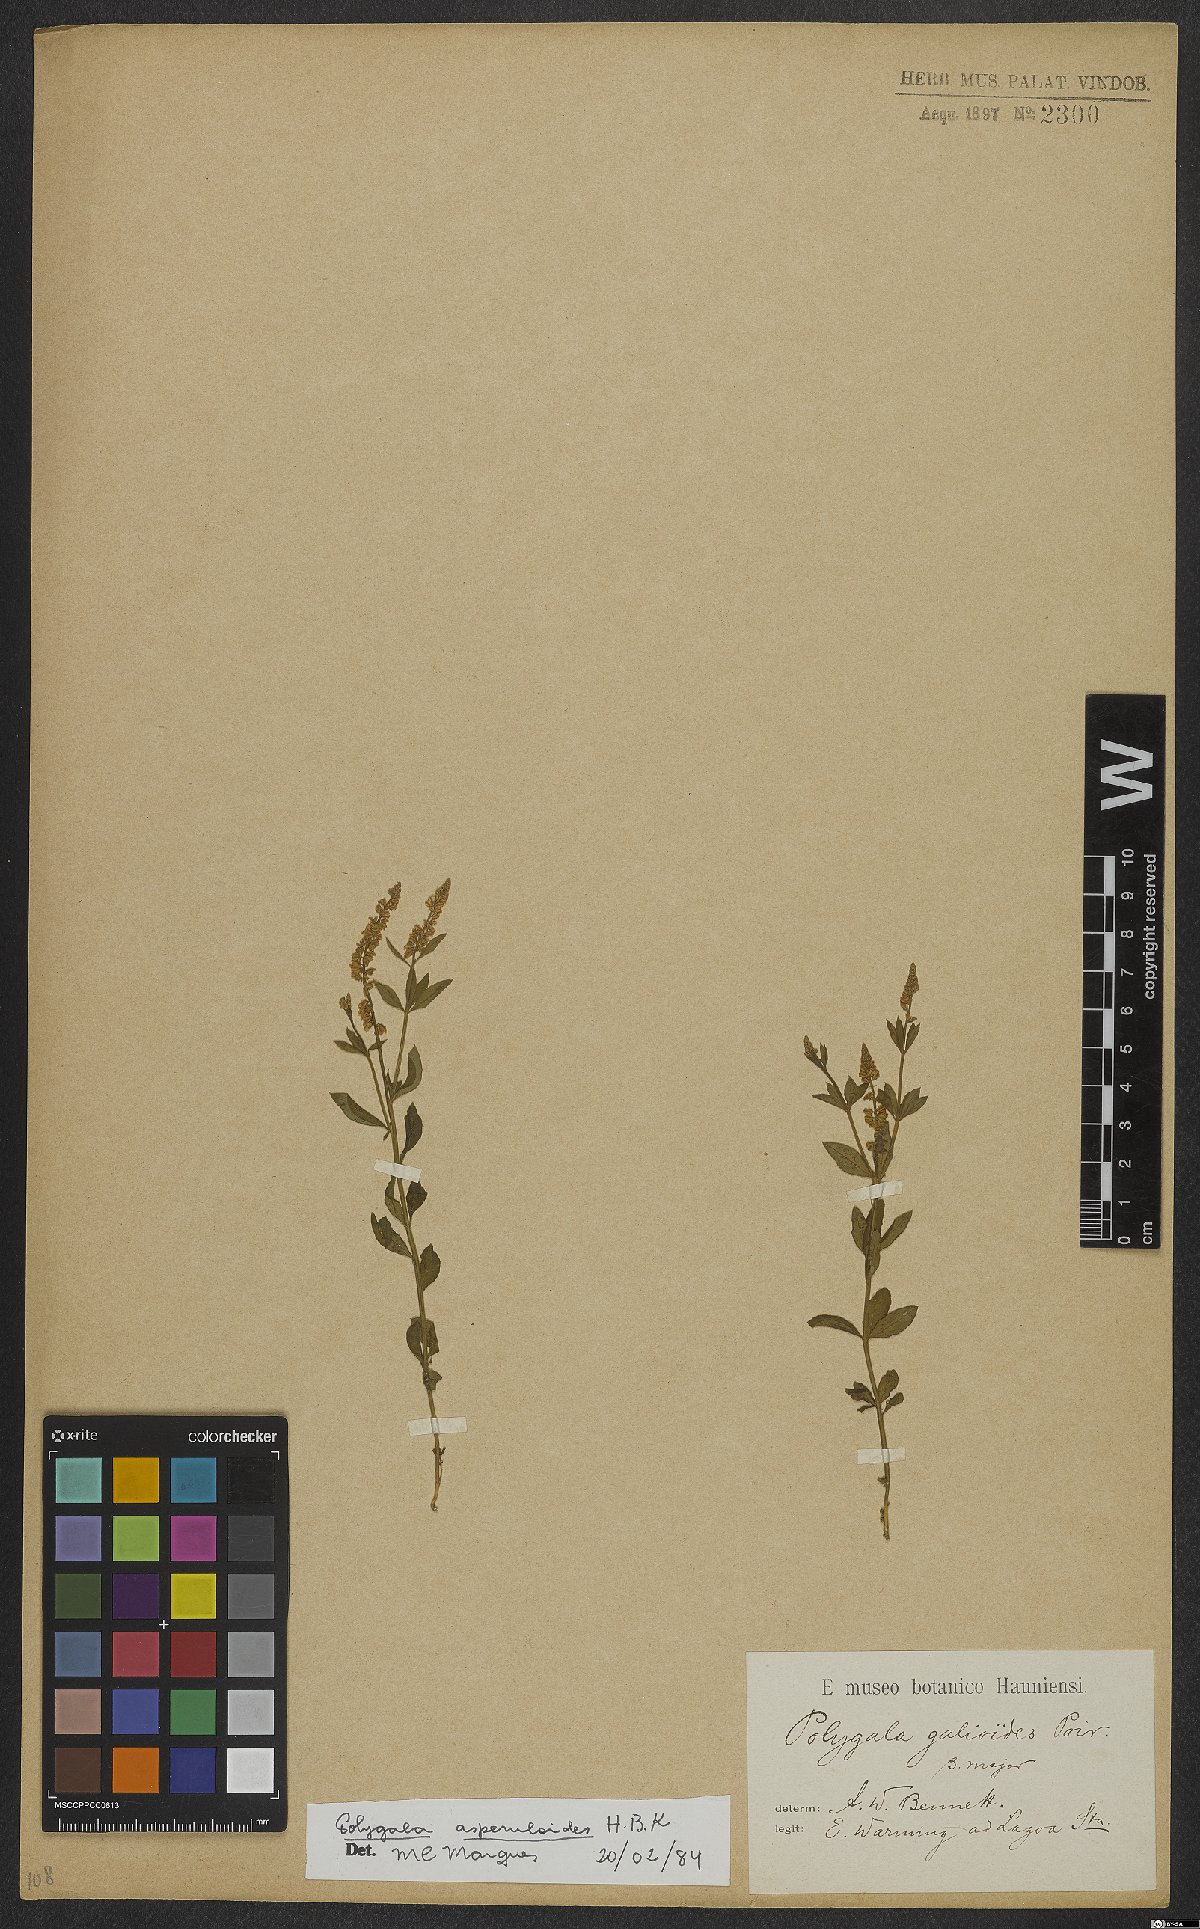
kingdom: Plantae
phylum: Tracheophyta
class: Magnoliopsida
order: Fabales
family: Polygalaceae
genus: Polygala
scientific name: Polygala asperuloides
